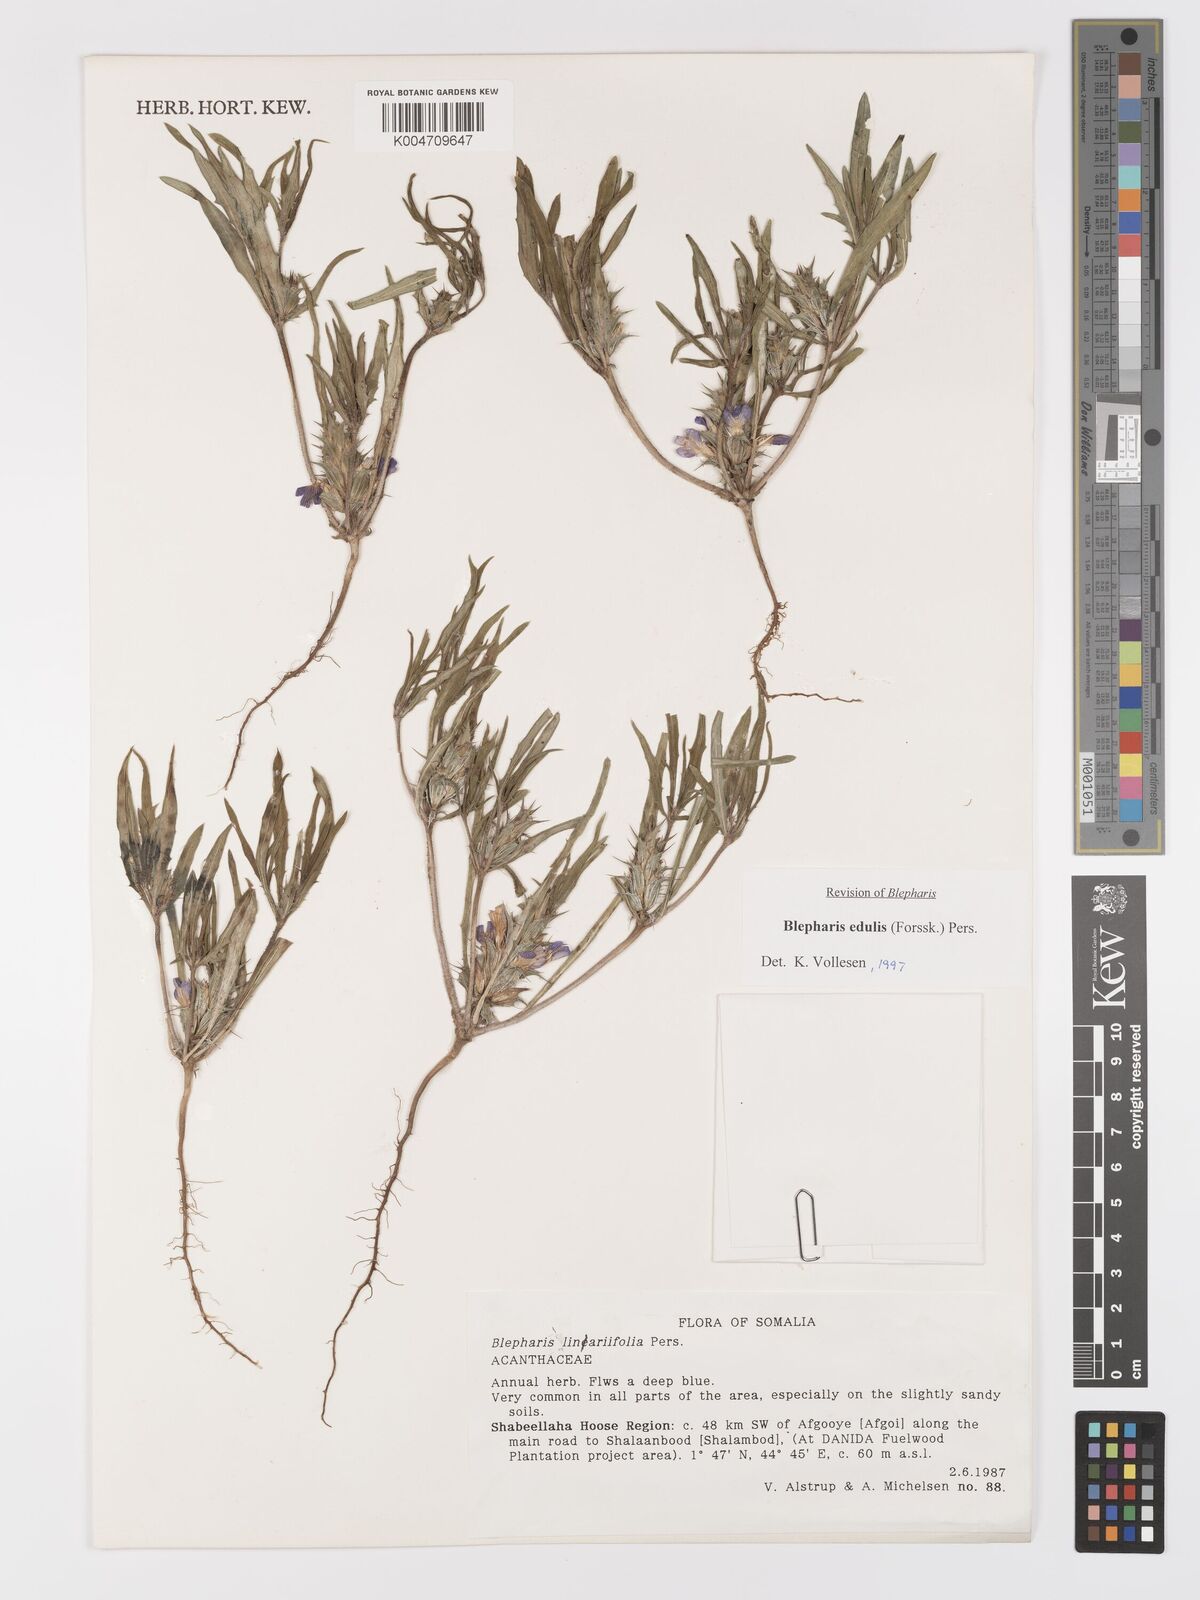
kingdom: Plantae
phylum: Tracheophyta
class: Magnoliopsida
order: Lamiales
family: Acanthaceae
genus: Blepharis
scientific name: Blepharis edulis
